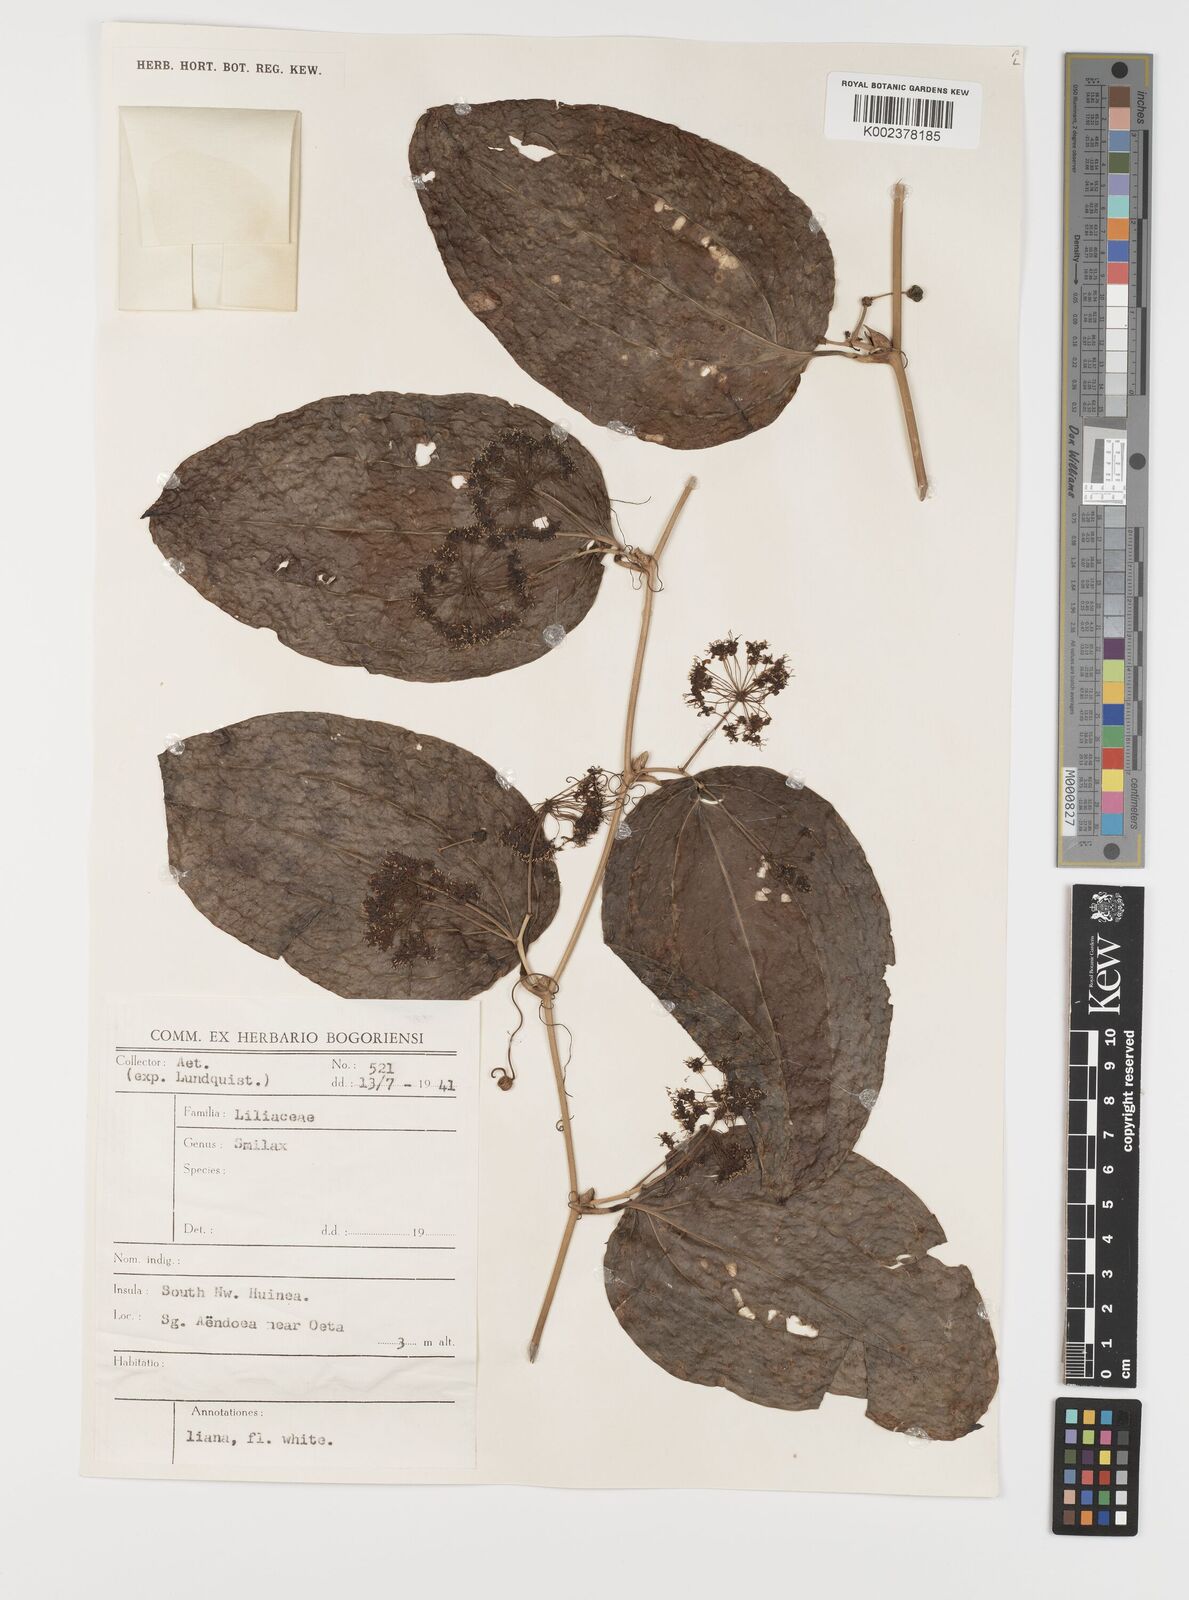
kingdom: Plantae
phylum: Tracheophyta
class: Liliopsida
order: Liliales
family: Smilacaceae
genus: Smilax
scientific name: Smilax
